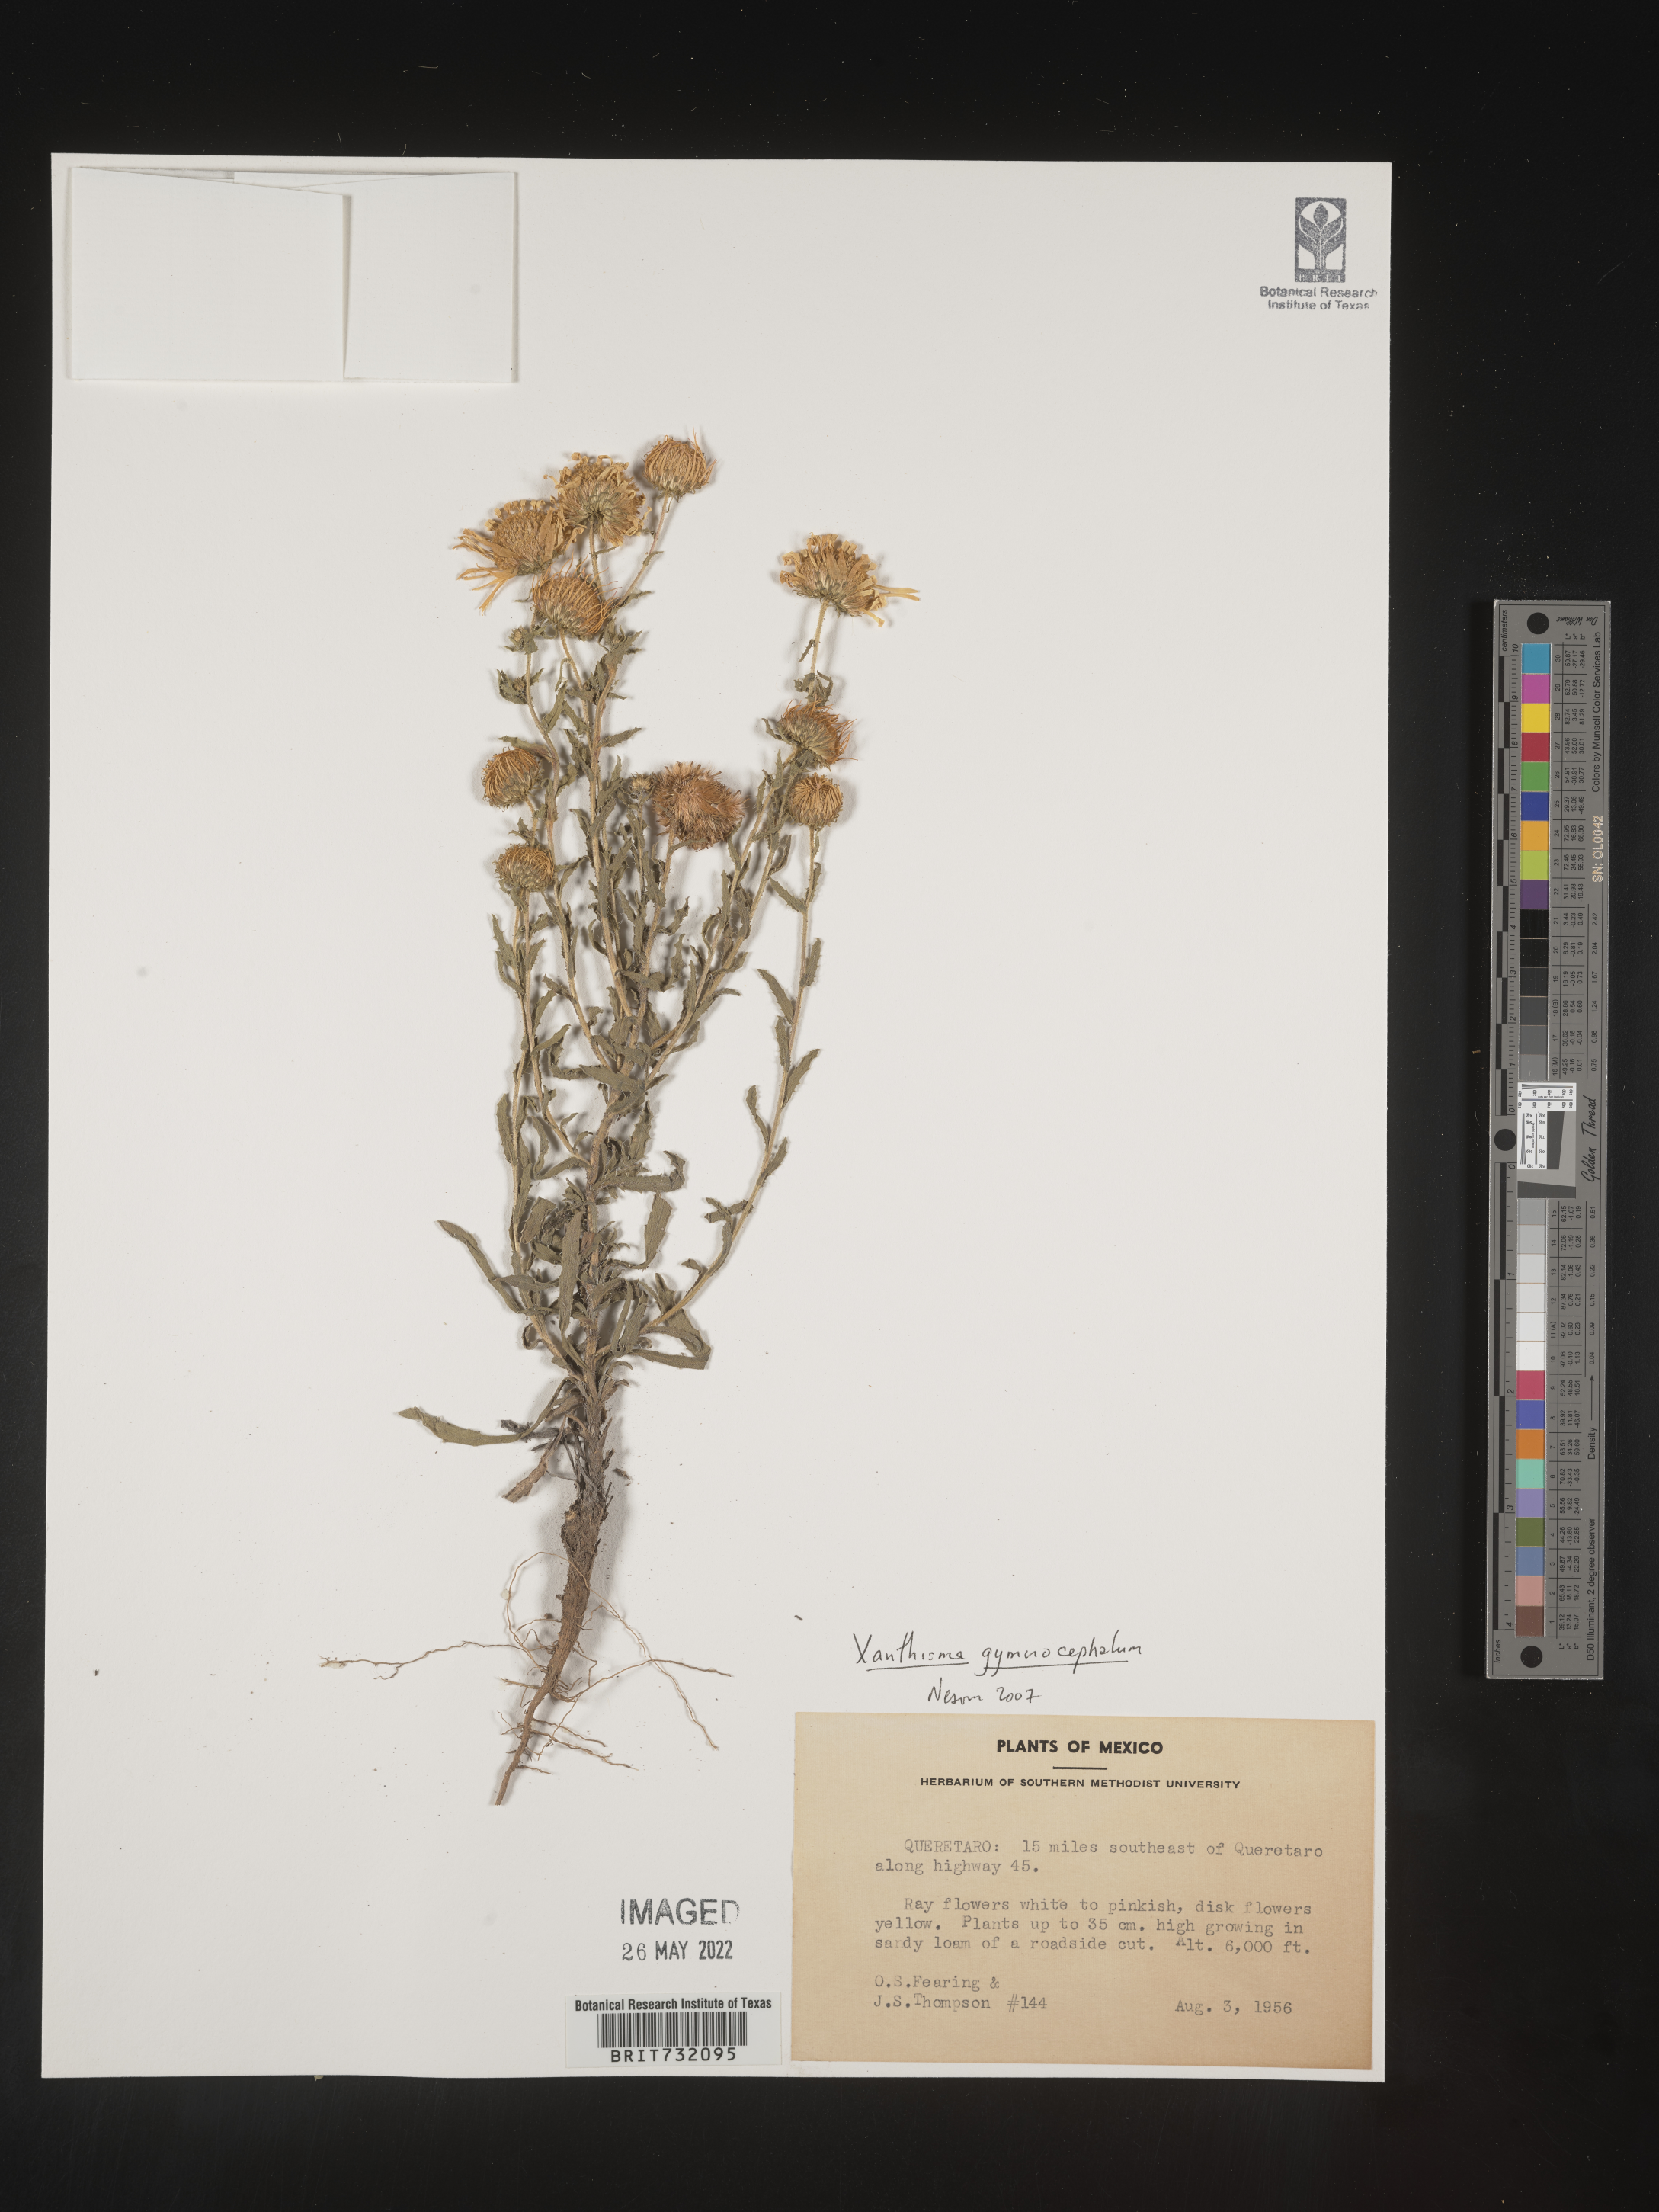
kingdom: Plantae
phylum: Tracheophyta
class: Magnoliopsida
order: Asterales
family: Asteraceae
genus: Xanthisma
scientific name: Xanthisma blephariphyllum
